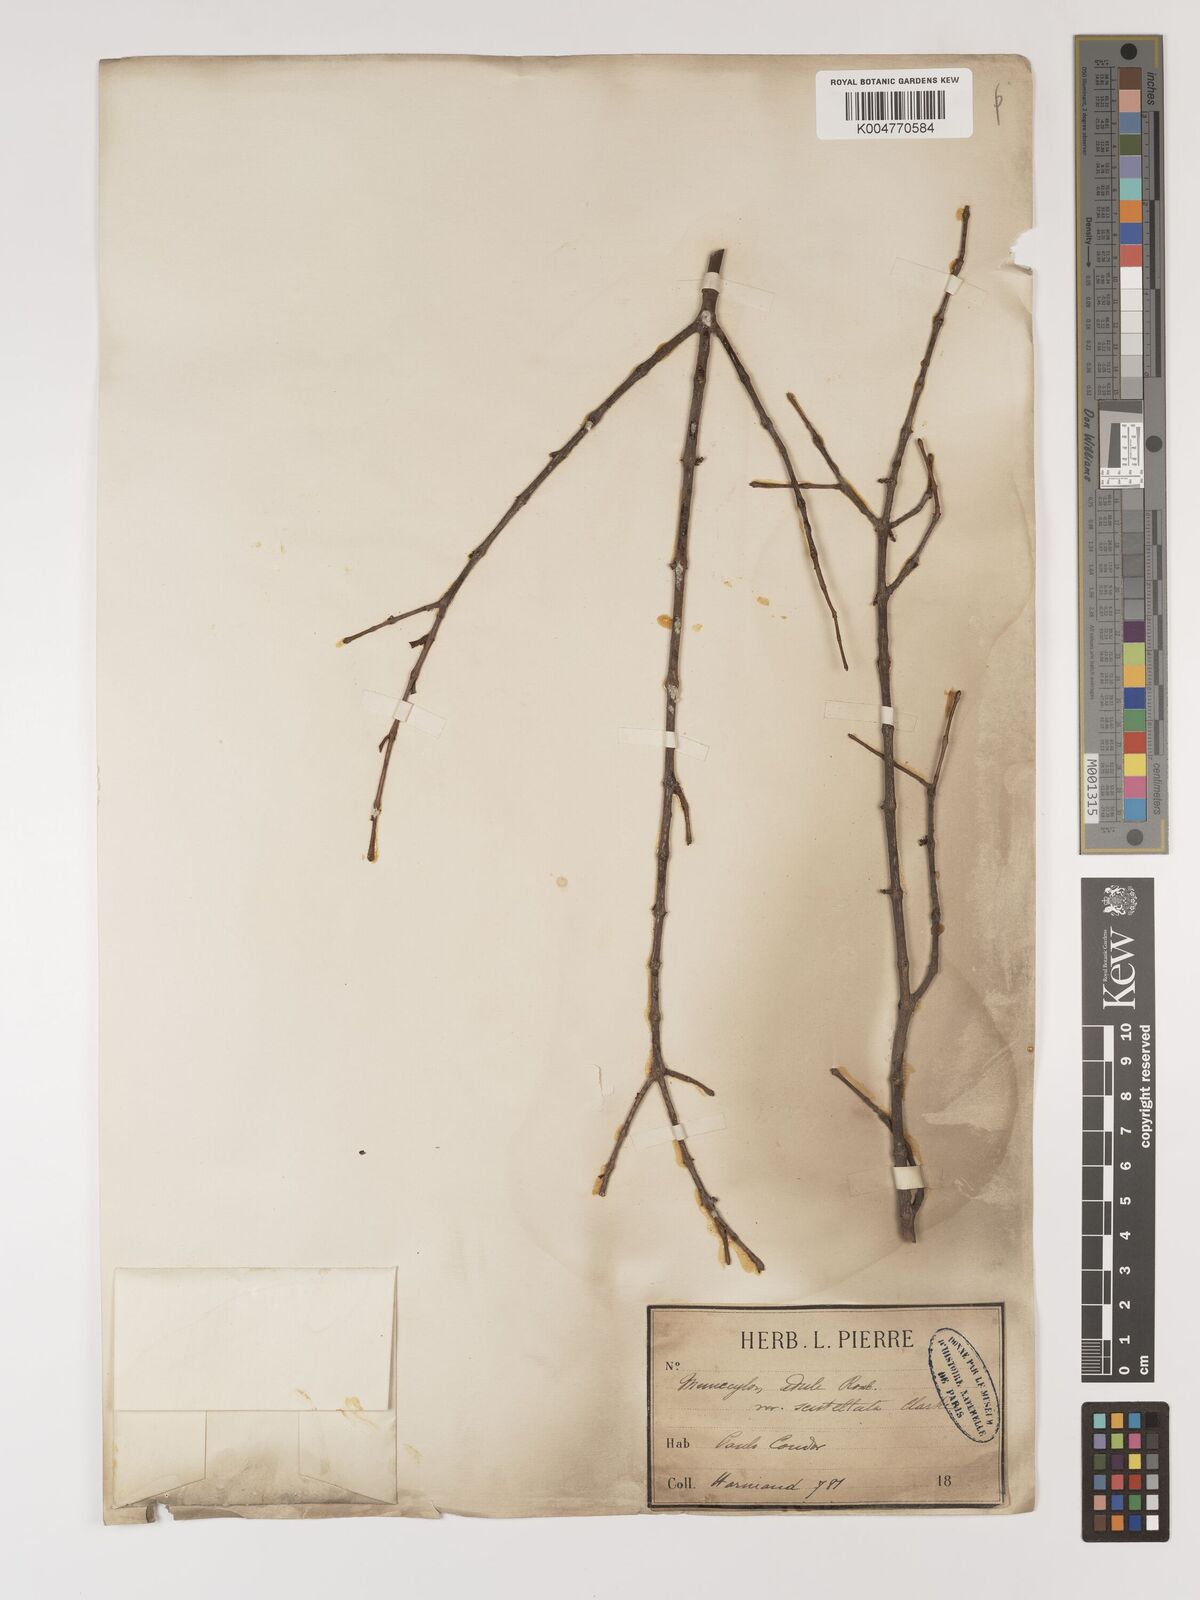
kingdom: Plantae
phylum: Tracheophyta
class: Magnoliopsida
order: Myrtales
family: Melastomataceae
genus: Memecylon
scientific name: Memecylon scutellatum
